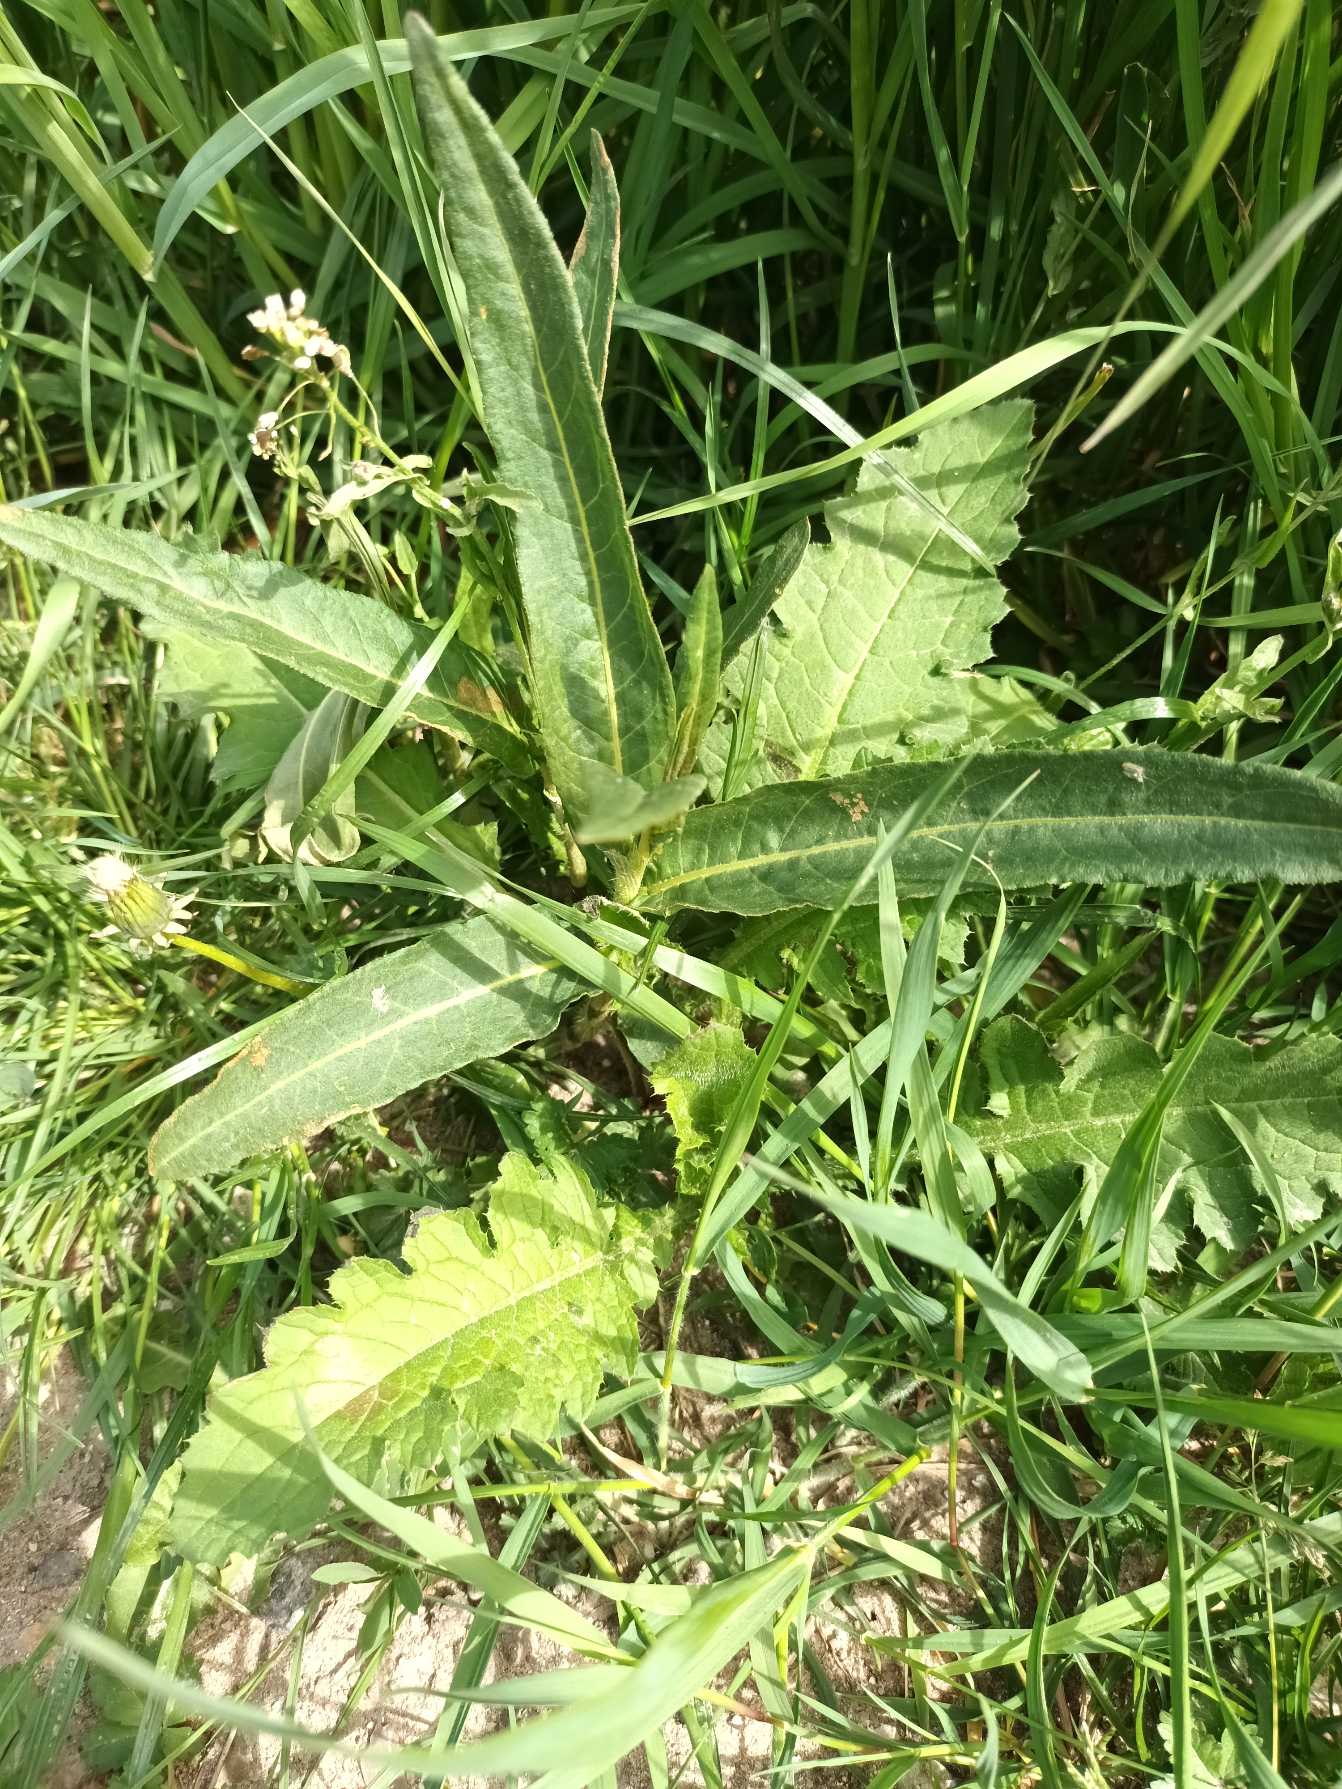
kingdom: Plantae
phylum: Tracheophyta
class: Magnoliopsida
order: Caryophyllales
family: Polygonaceae
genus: Persicaria
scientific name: Persicaria amphibia
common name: Vand-pileurt
